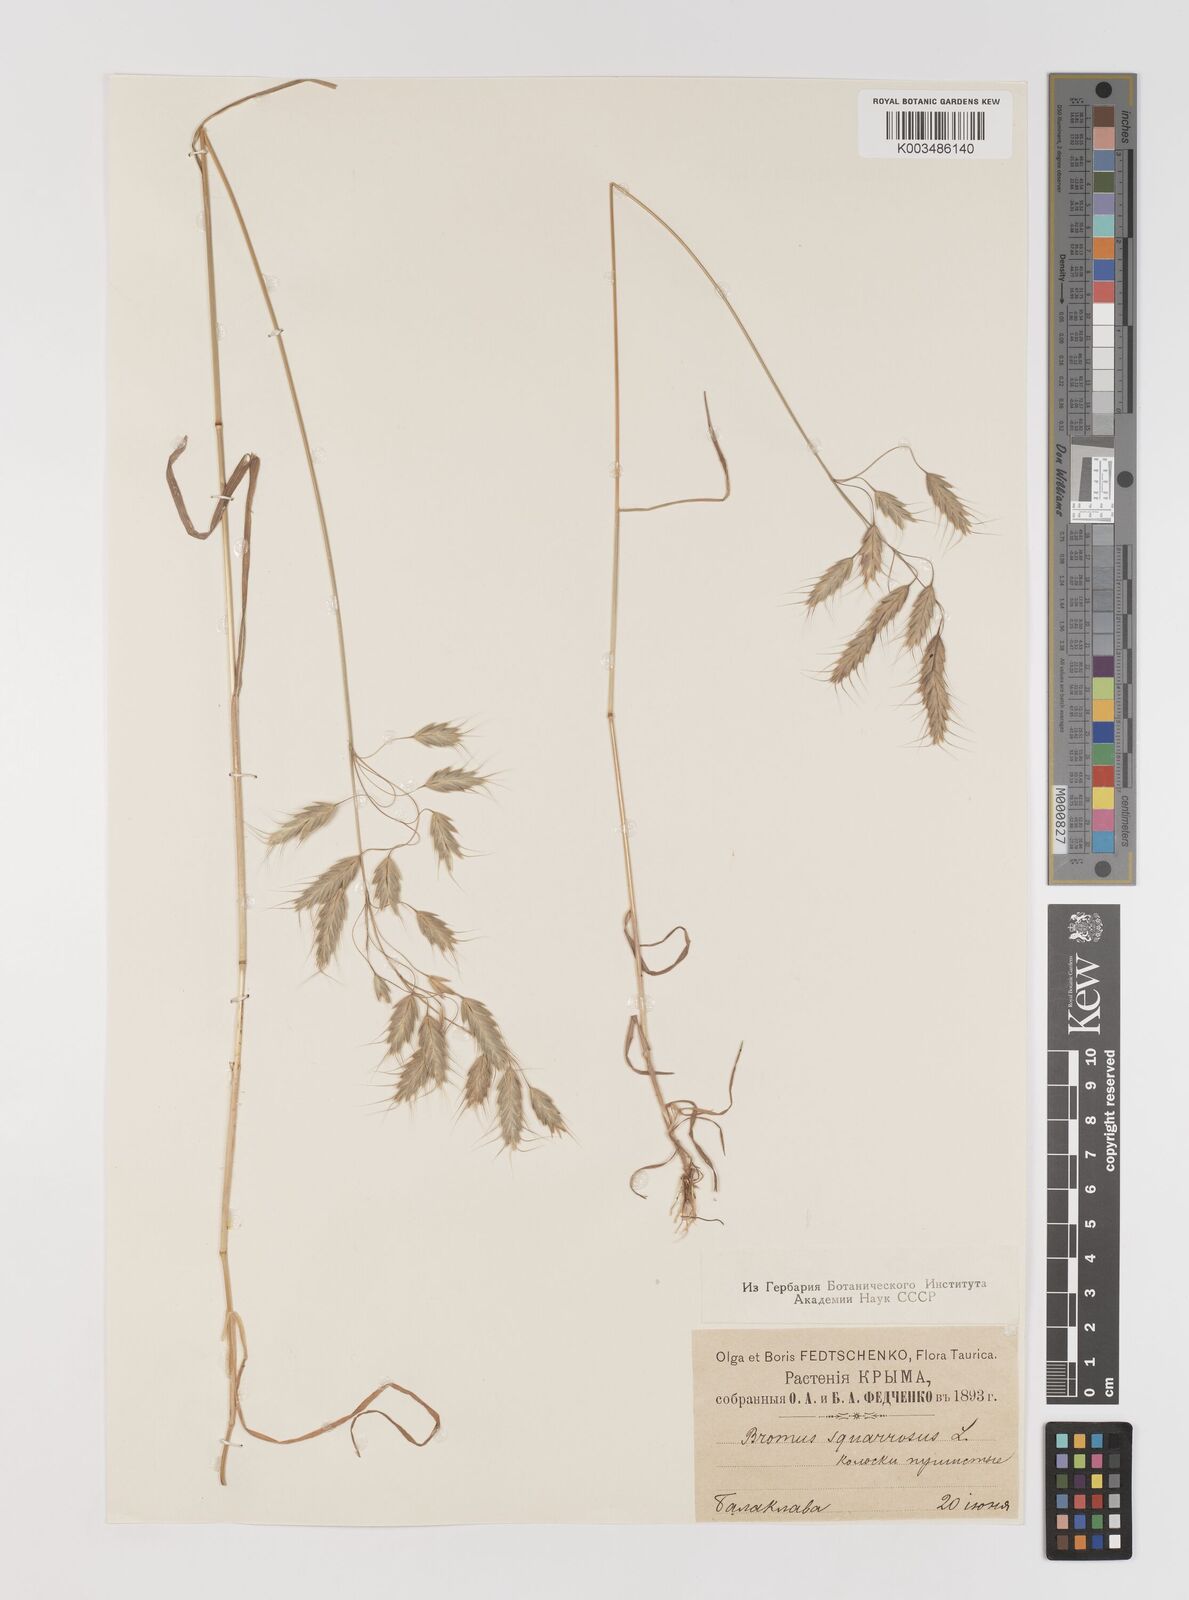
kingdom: Plantae
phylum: Tracheophyta
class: Liliopsida
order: Poales
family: Poaceae
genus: Bromus
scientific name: Bromus squarrosus
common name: Corn brome
